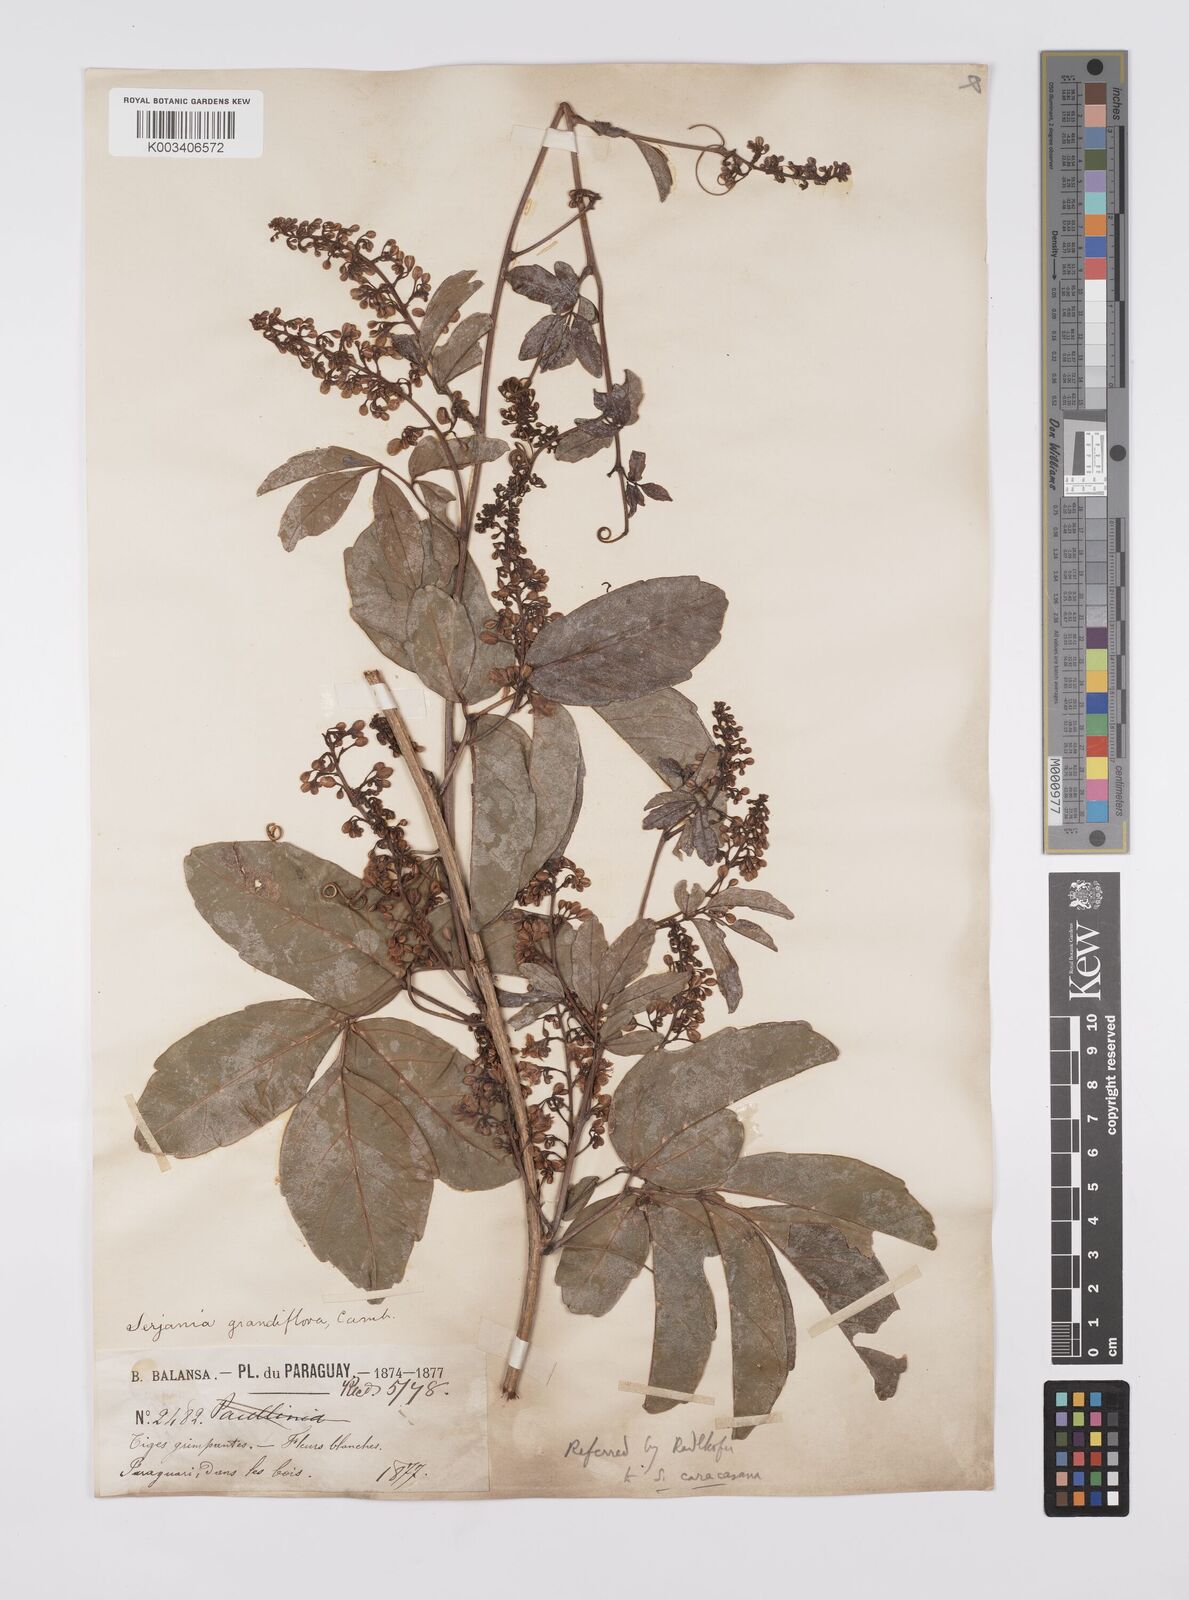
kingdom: Plantae
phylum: Tracheophyta
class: Magnoliopsida
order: Sapindales
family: Sapindaceae
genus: Serjania
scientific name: Serjania caracasana
